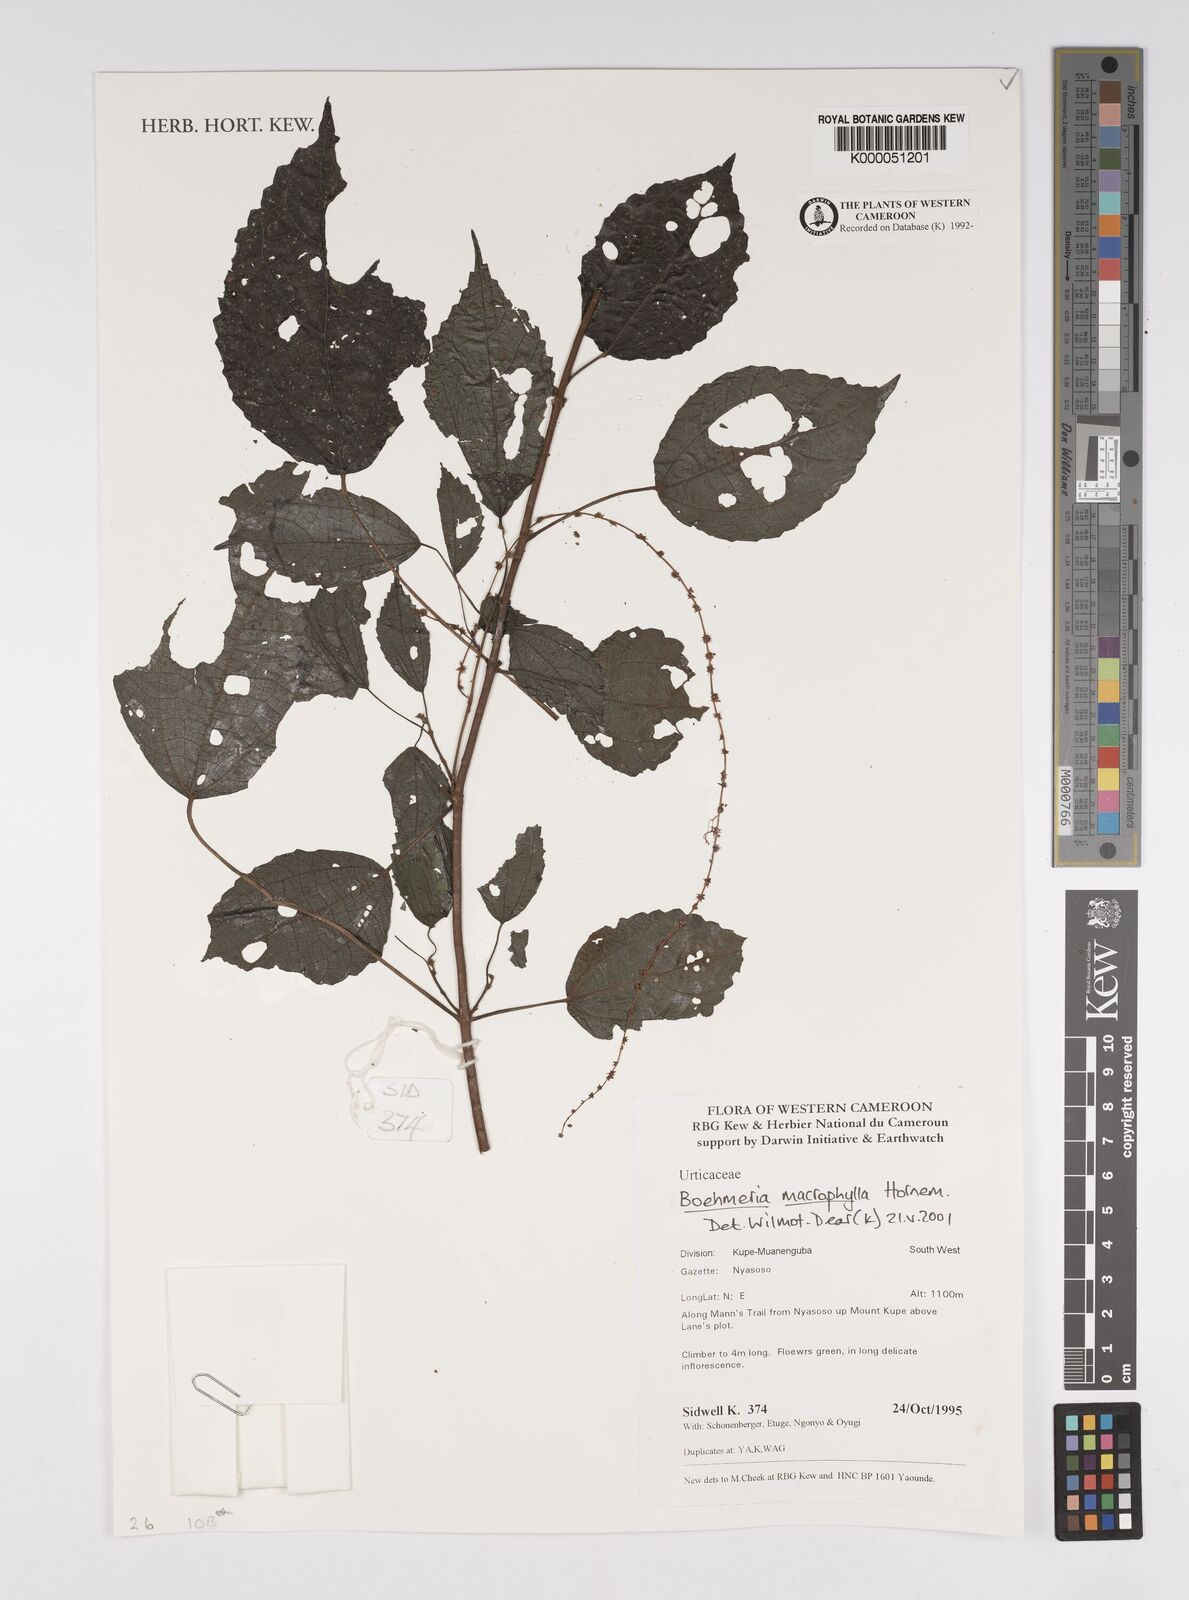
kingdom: Plantae
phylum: Tracheophyta
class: Magnoliopsida
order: Rosales
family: Urticaceae
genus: Boehmeria
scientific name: Boehmeria virgata
